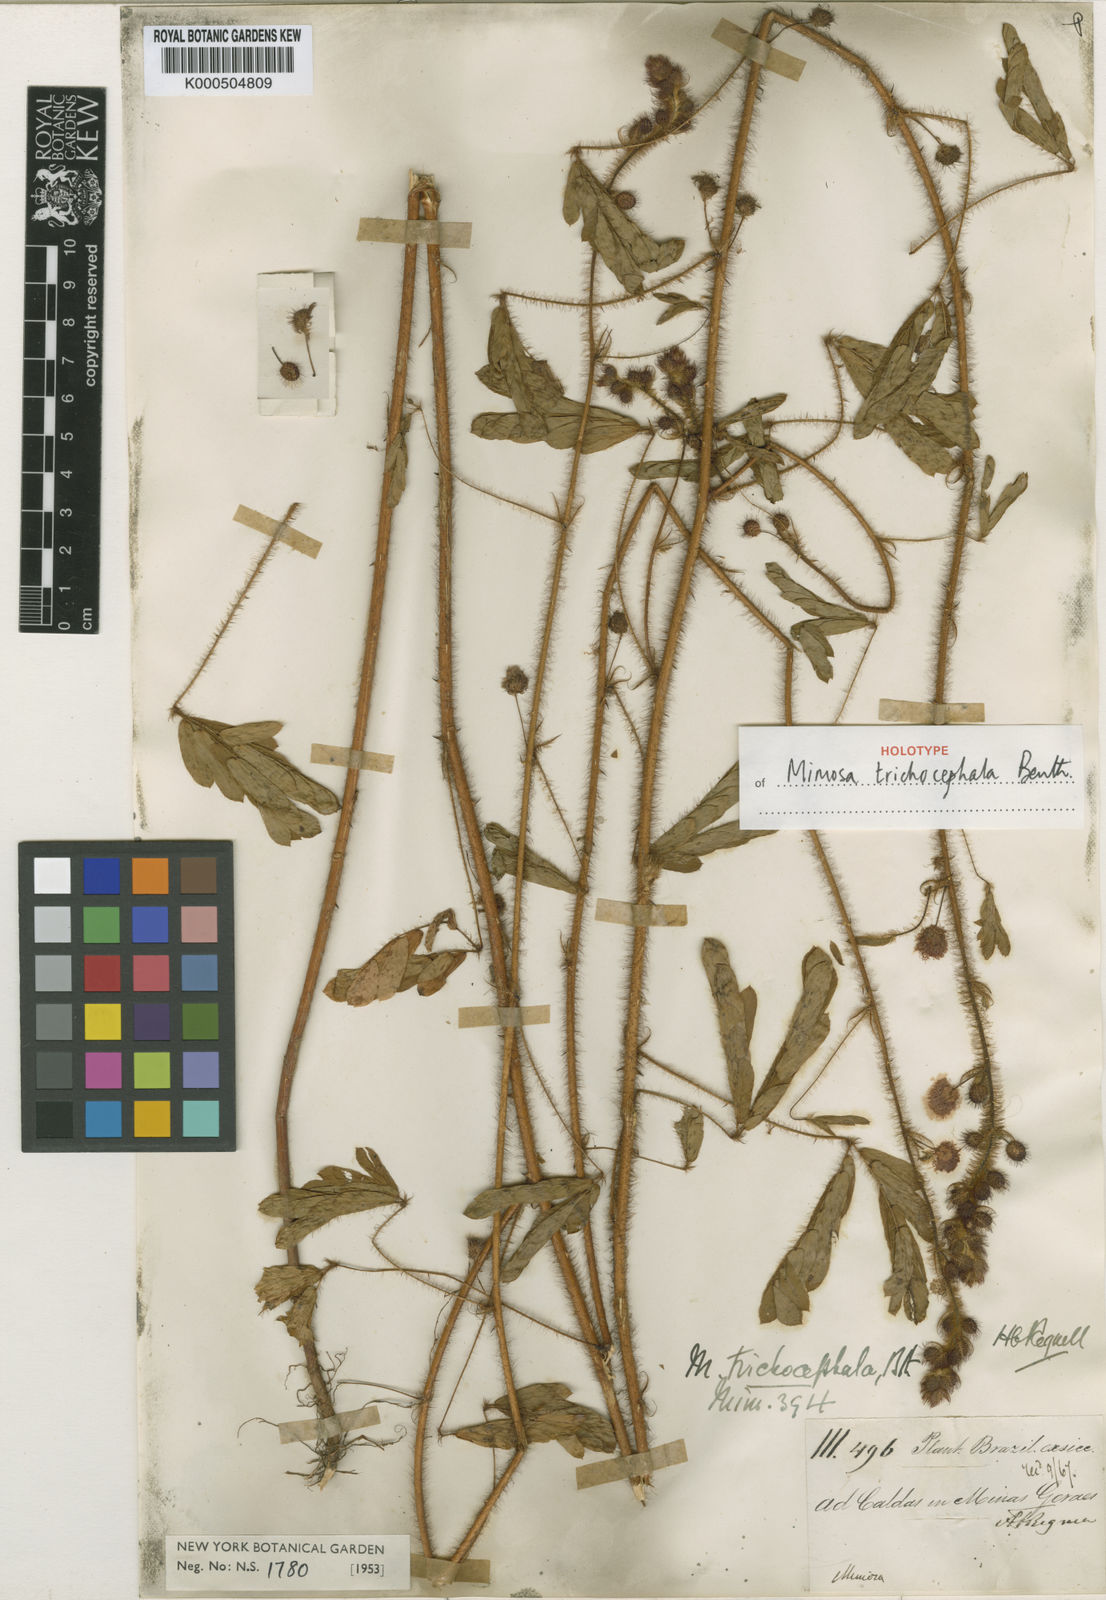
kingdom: Plantae
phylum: Tracheophyta
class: Magnoliopsida
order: Fabales
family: Fabaceae
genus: Mimosa
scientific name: Mimosa trichocephala
